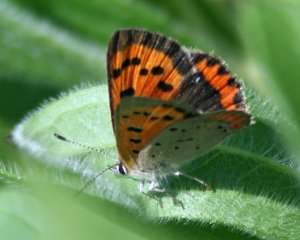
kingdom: Animalia
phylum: Arthropoda
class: Insecta
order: Lepidoptera
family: Lycaenidae
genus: Lycaena
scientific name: Lycaena phlaeas
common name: American Copper
